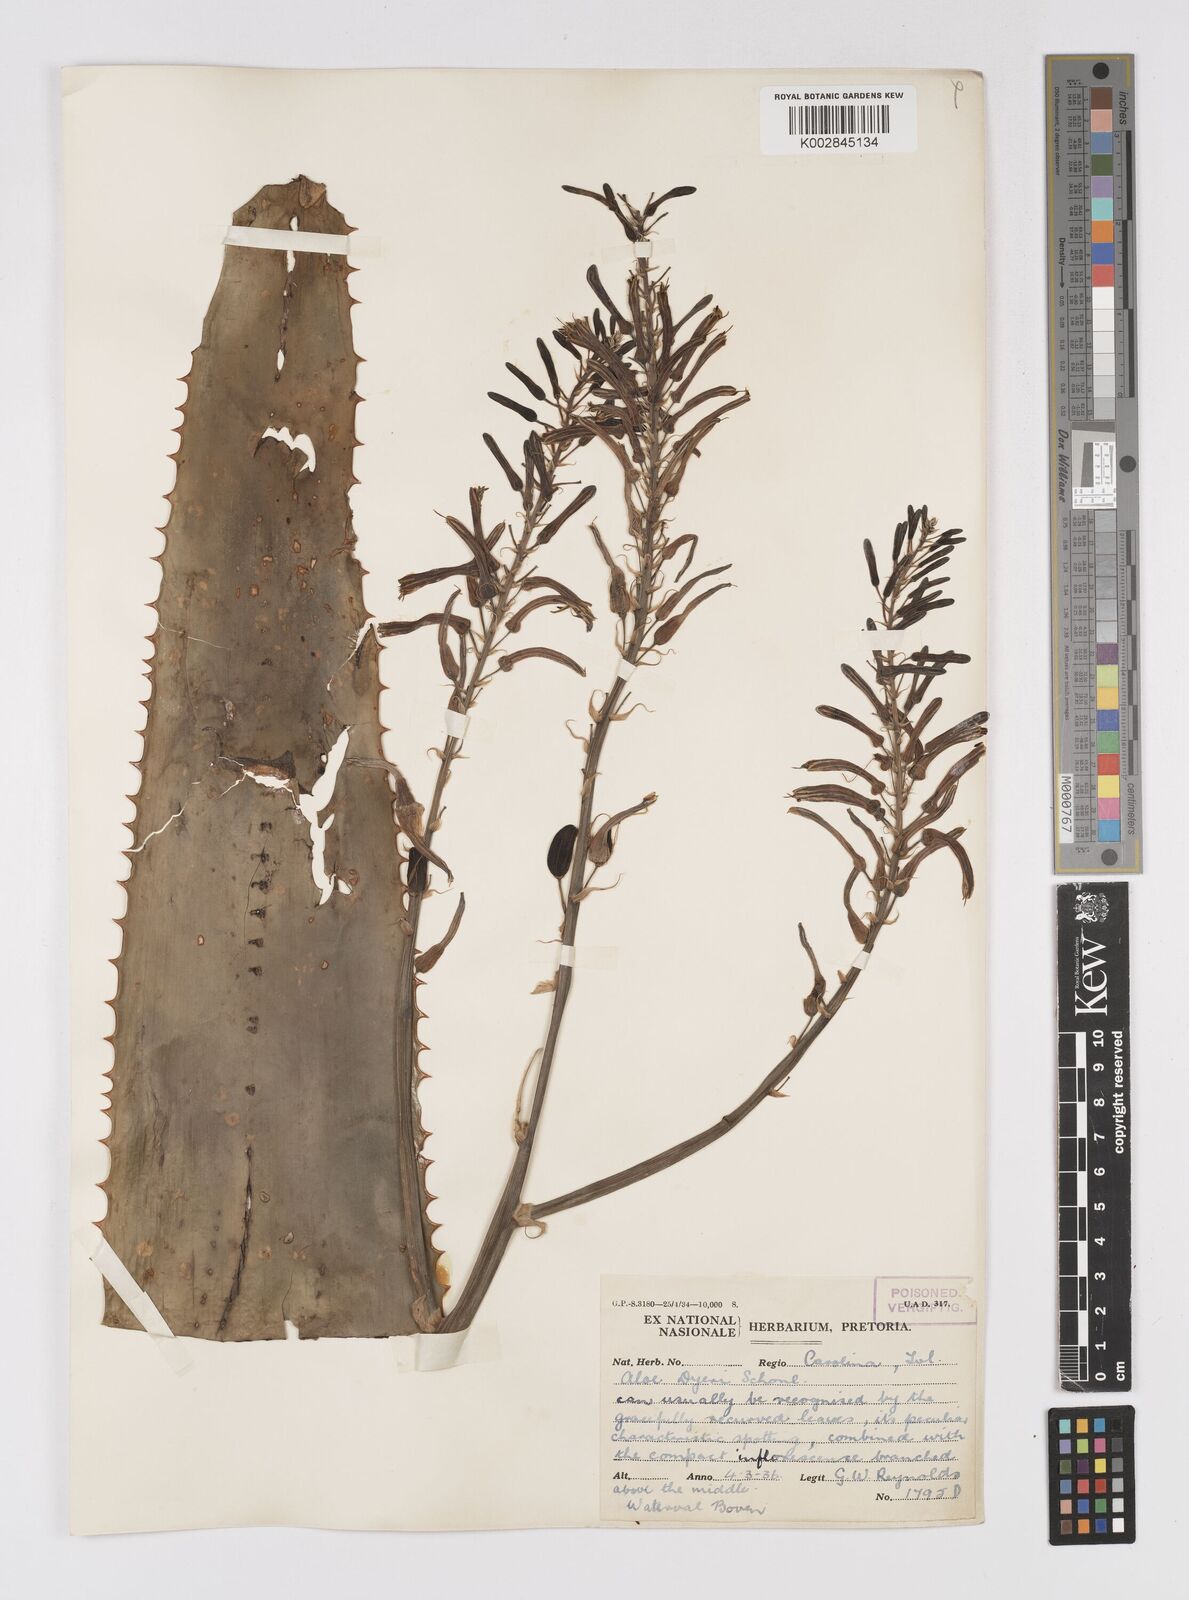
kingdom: Plantae
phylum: Tracheophyta
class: Liliopsida
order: Asparagales
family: Asphodelaceae
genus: Aloe
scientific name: Aloe dyeri
